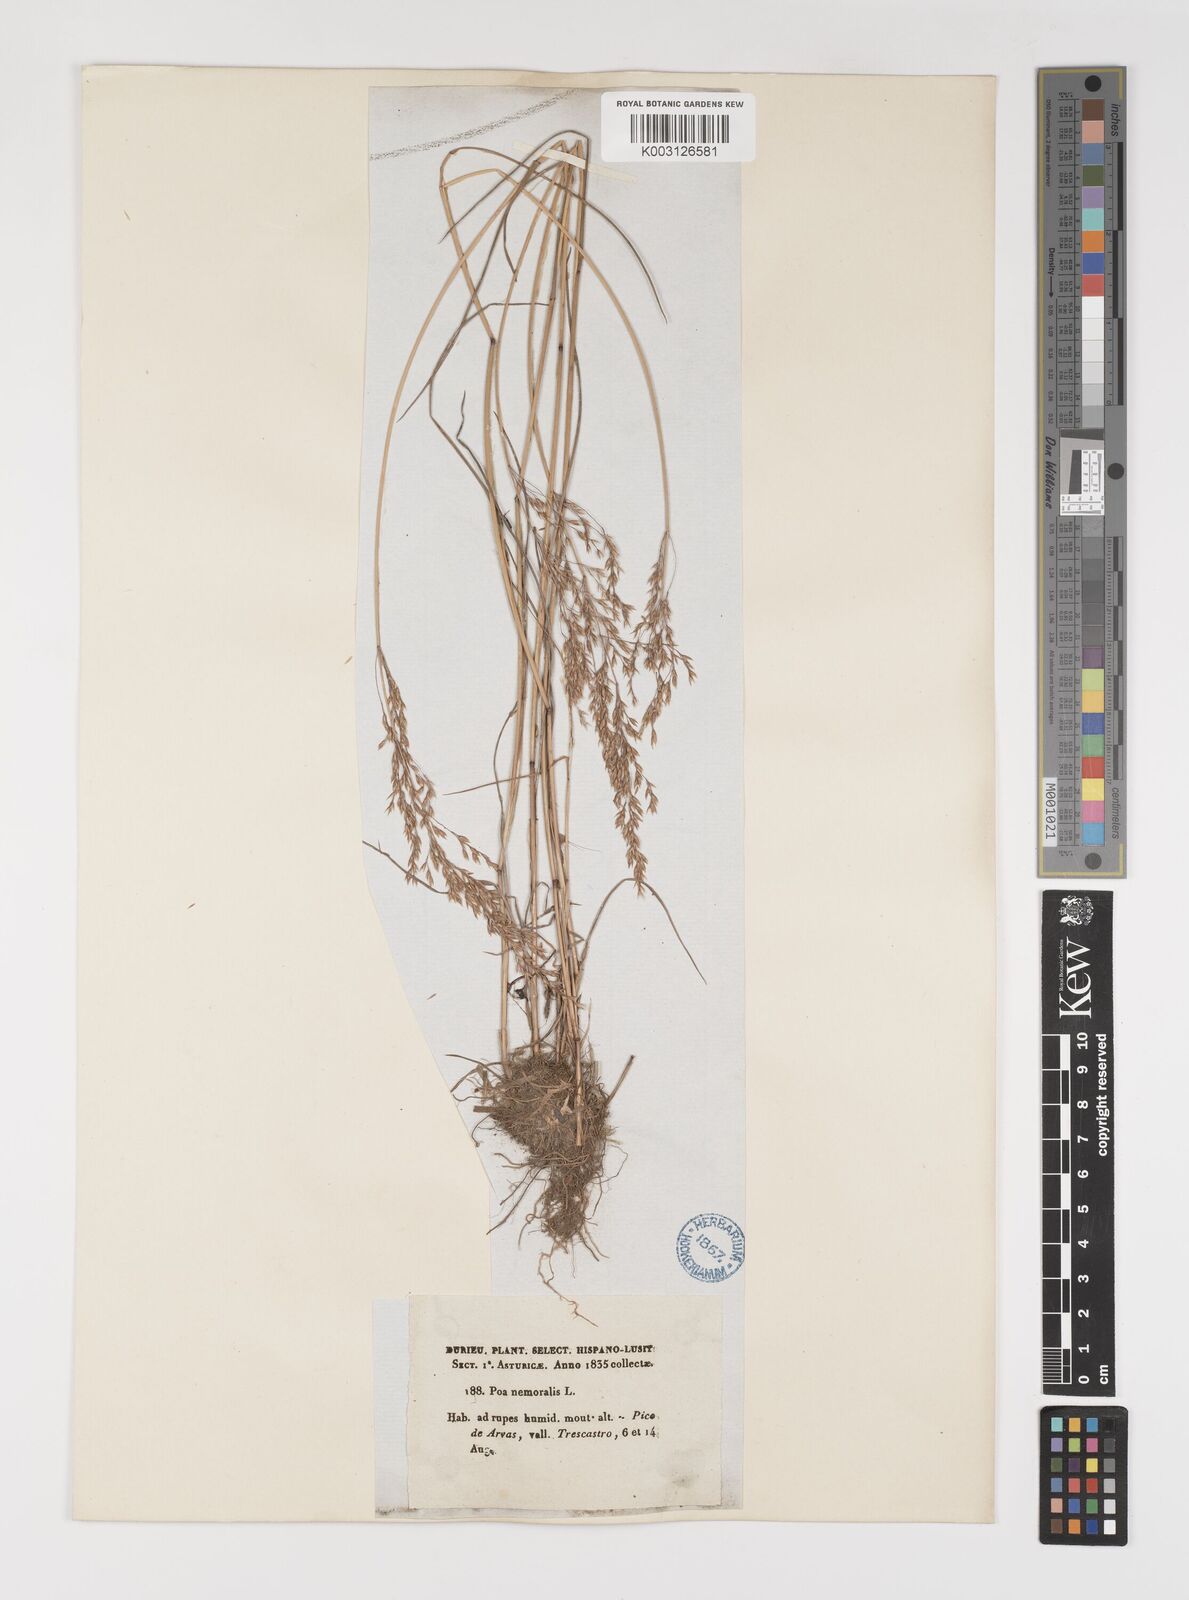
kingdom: Plantae
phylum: Tracheophyta
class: Liliopsida
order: Poales
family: Poaceae
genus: Poa
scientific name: Poa nemoralis
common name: Wood bluegrass
